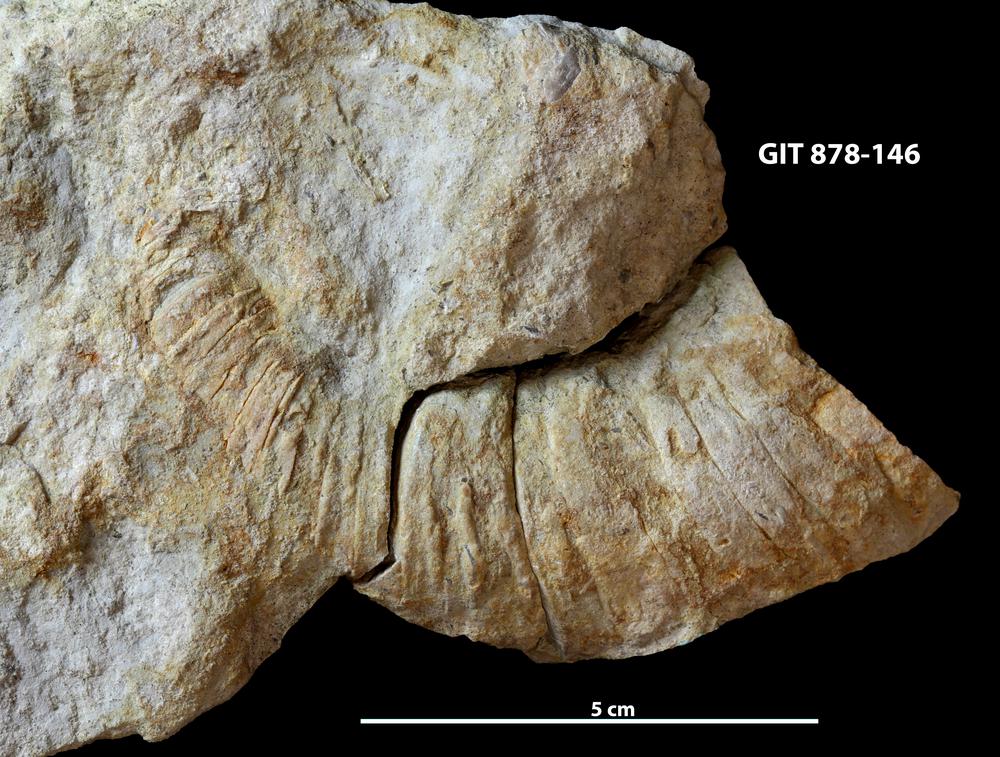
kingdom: Animalia
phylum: Mollusca
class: Cephalopoda
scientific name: Cephalopoda
